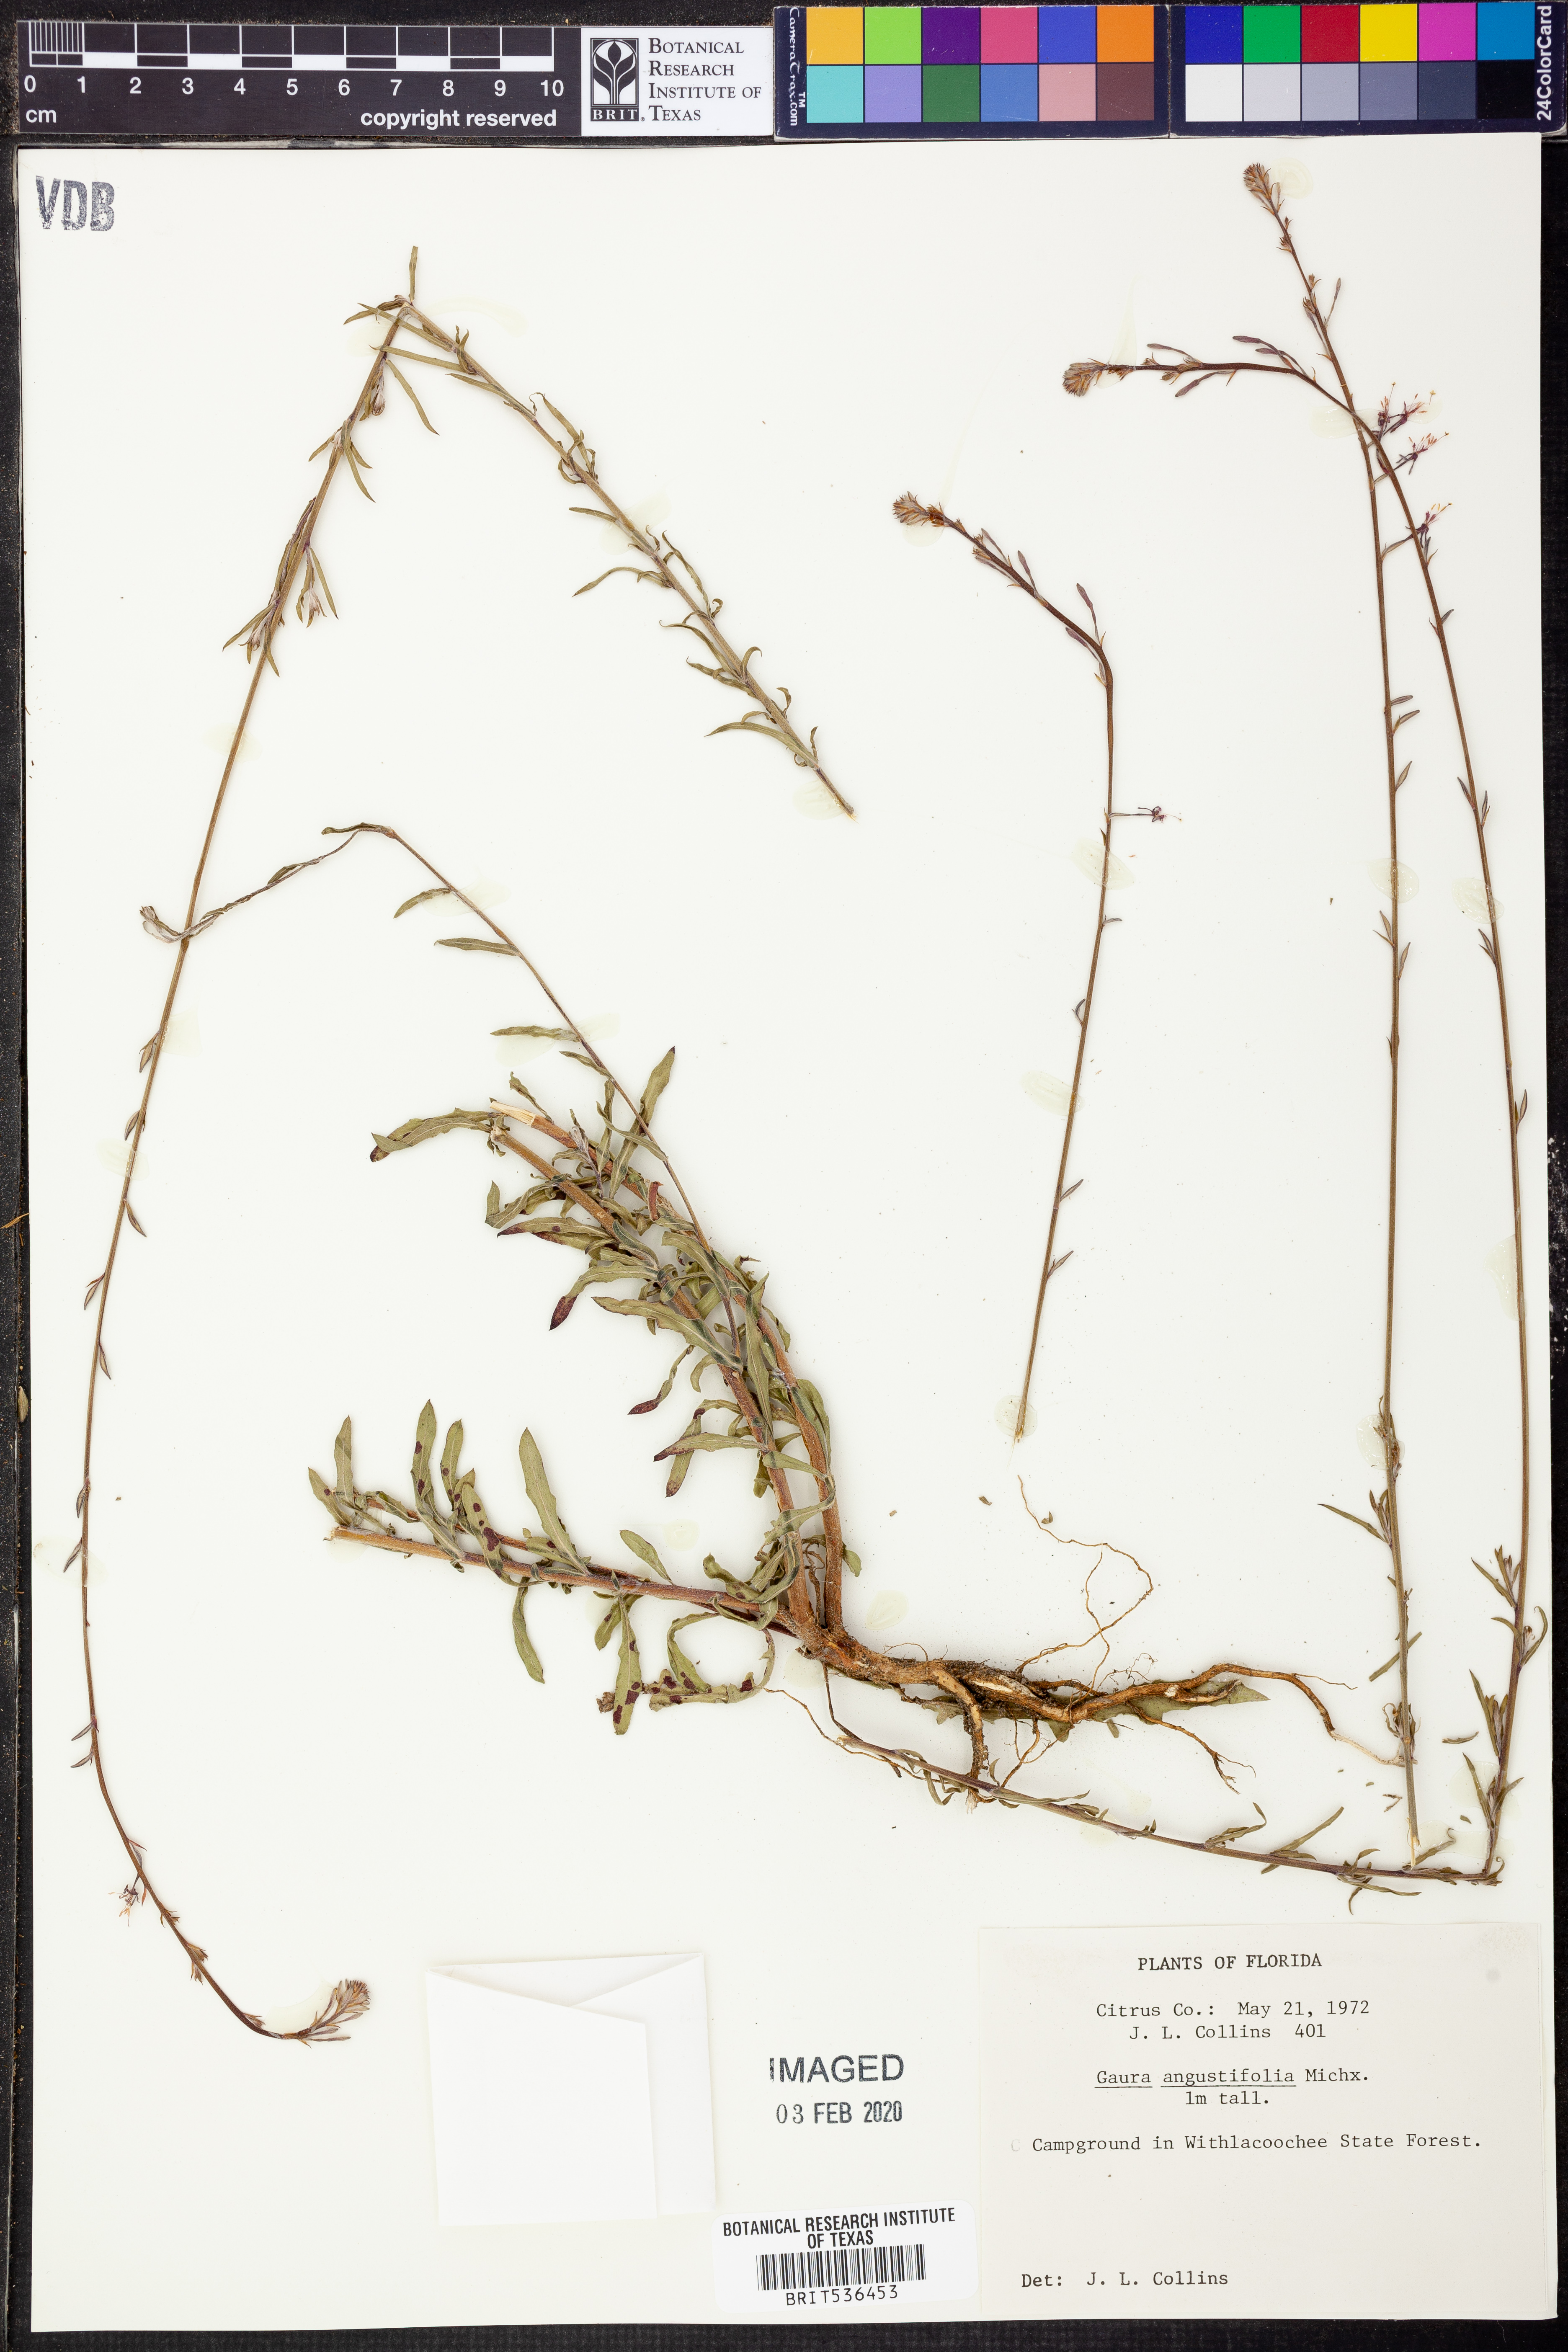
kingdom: Plantae
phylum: Tracheophyta
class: Magnoliopsida
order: Myrtales
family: Onagraceae
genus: Oenothera
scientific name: Oenothera simulans
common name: Southern beeblossom
